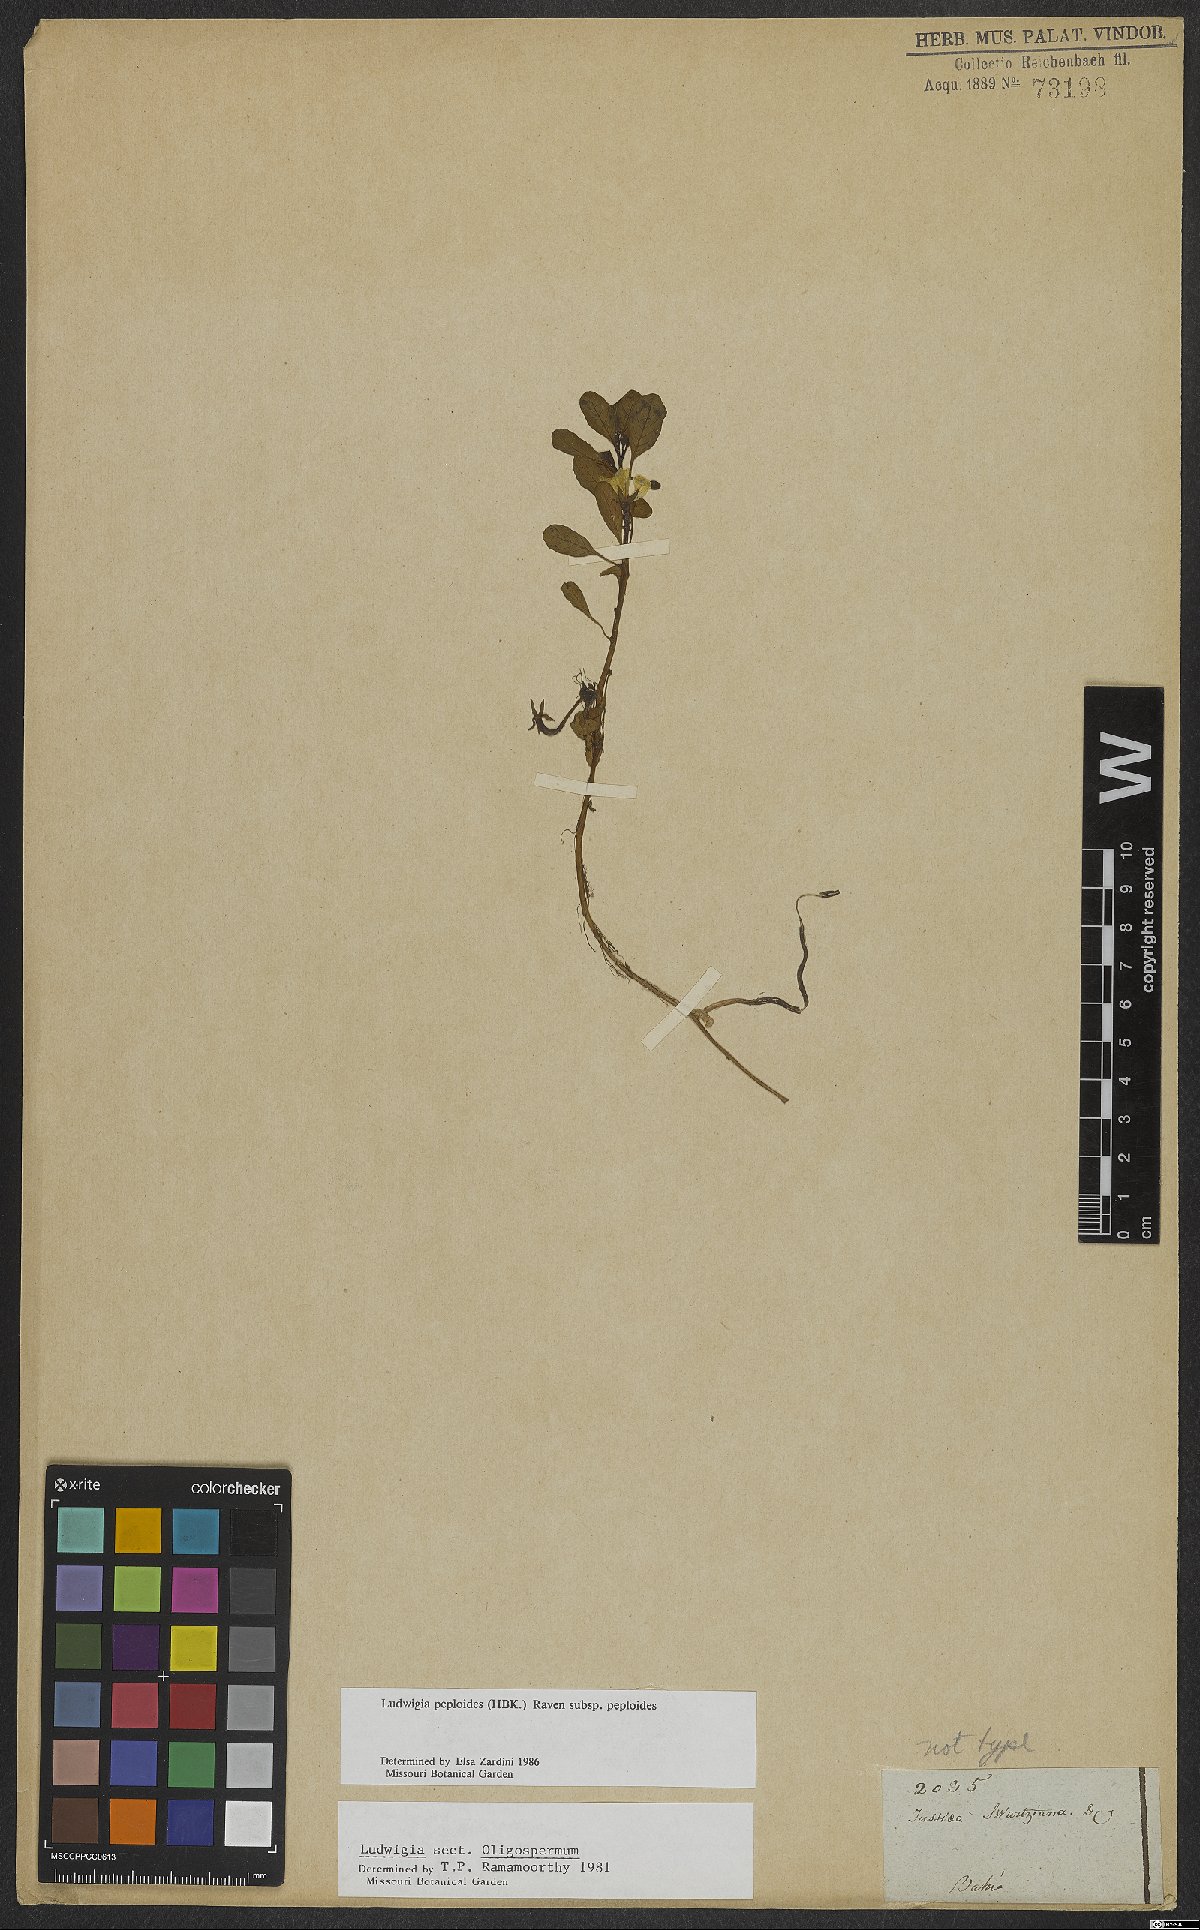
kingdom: Plantae
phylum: Tracheophyta
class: Magnoliopsida
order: Myrtales
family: Onagraceae
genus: Ludwigia
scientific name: Ludwigia peploides
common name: Floating primrose-willow
